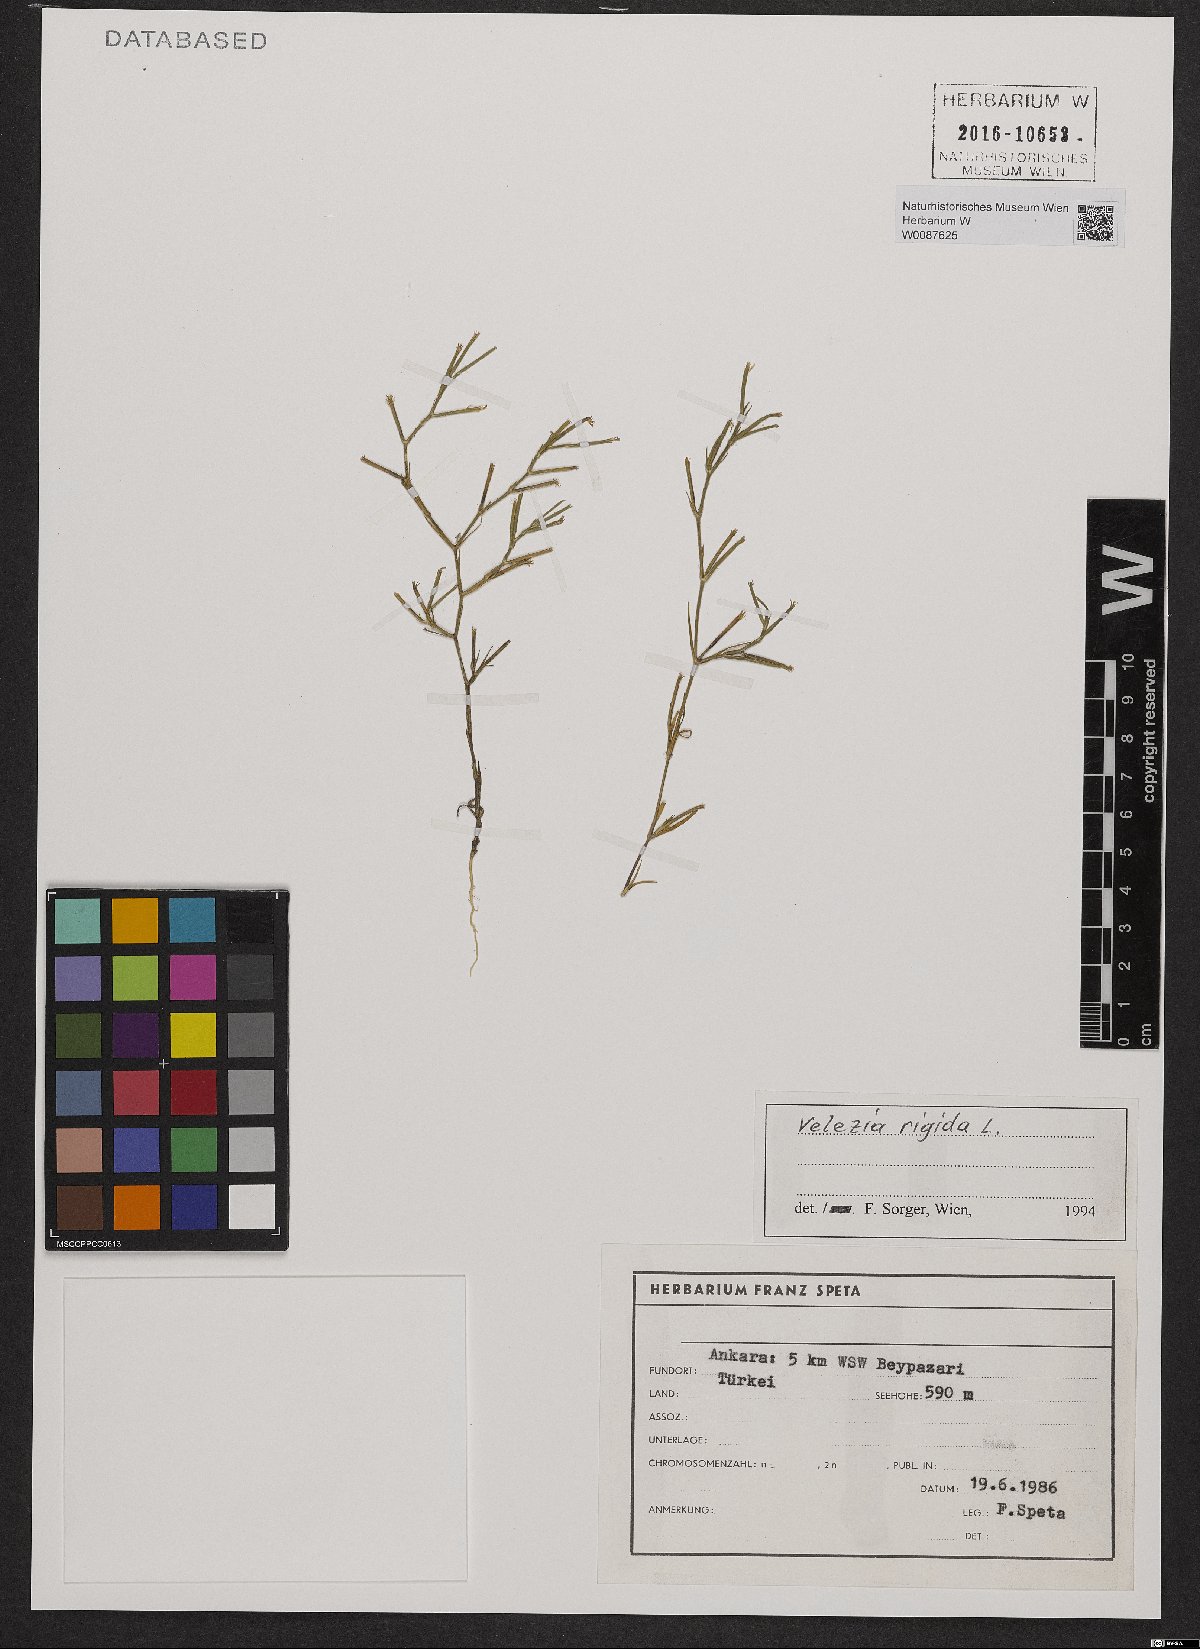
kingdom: Plantae
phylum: Tracheophyta
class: Magnoliopsida
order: Caryophyllales
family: Caryophyllaceae
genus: Dianthus
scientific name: Dianthus nudiflorus
